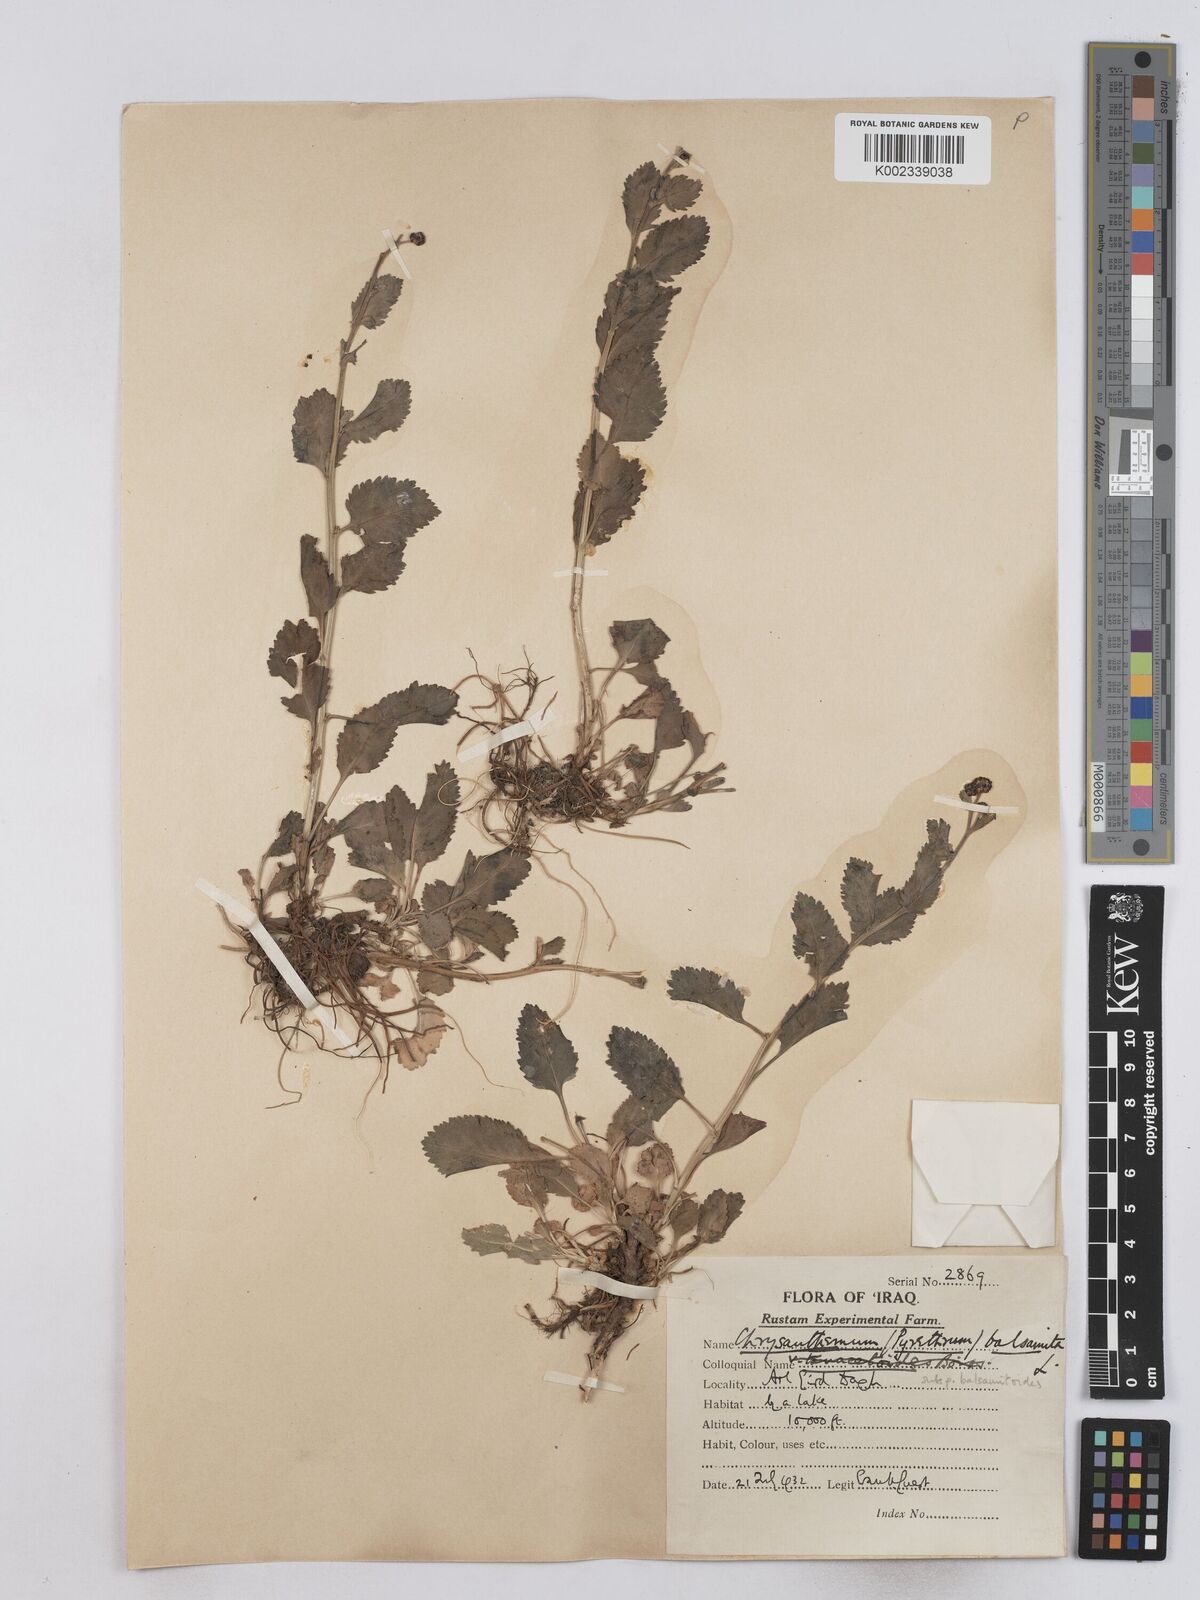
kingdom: Plantae
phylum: Tracheophyta
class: Magnoliopsida
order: Asterales
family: Asteraceae
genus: Tanacetum
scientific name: Tanacetum balsamitoides
